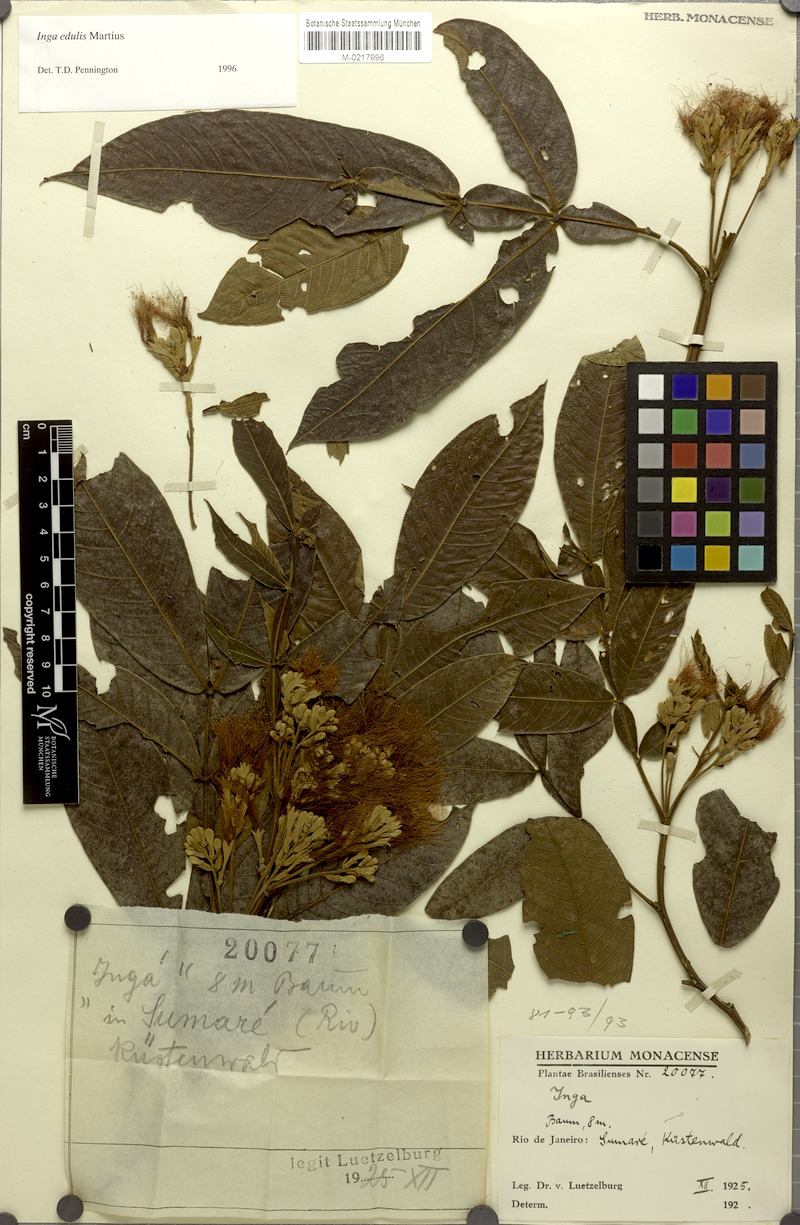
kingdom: Plantae
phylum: Tracheophyta
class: Magnoliopsida
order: Fabales
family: Fabaceae
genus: Inga
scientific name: Inga edulis
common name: Ice cream bean
